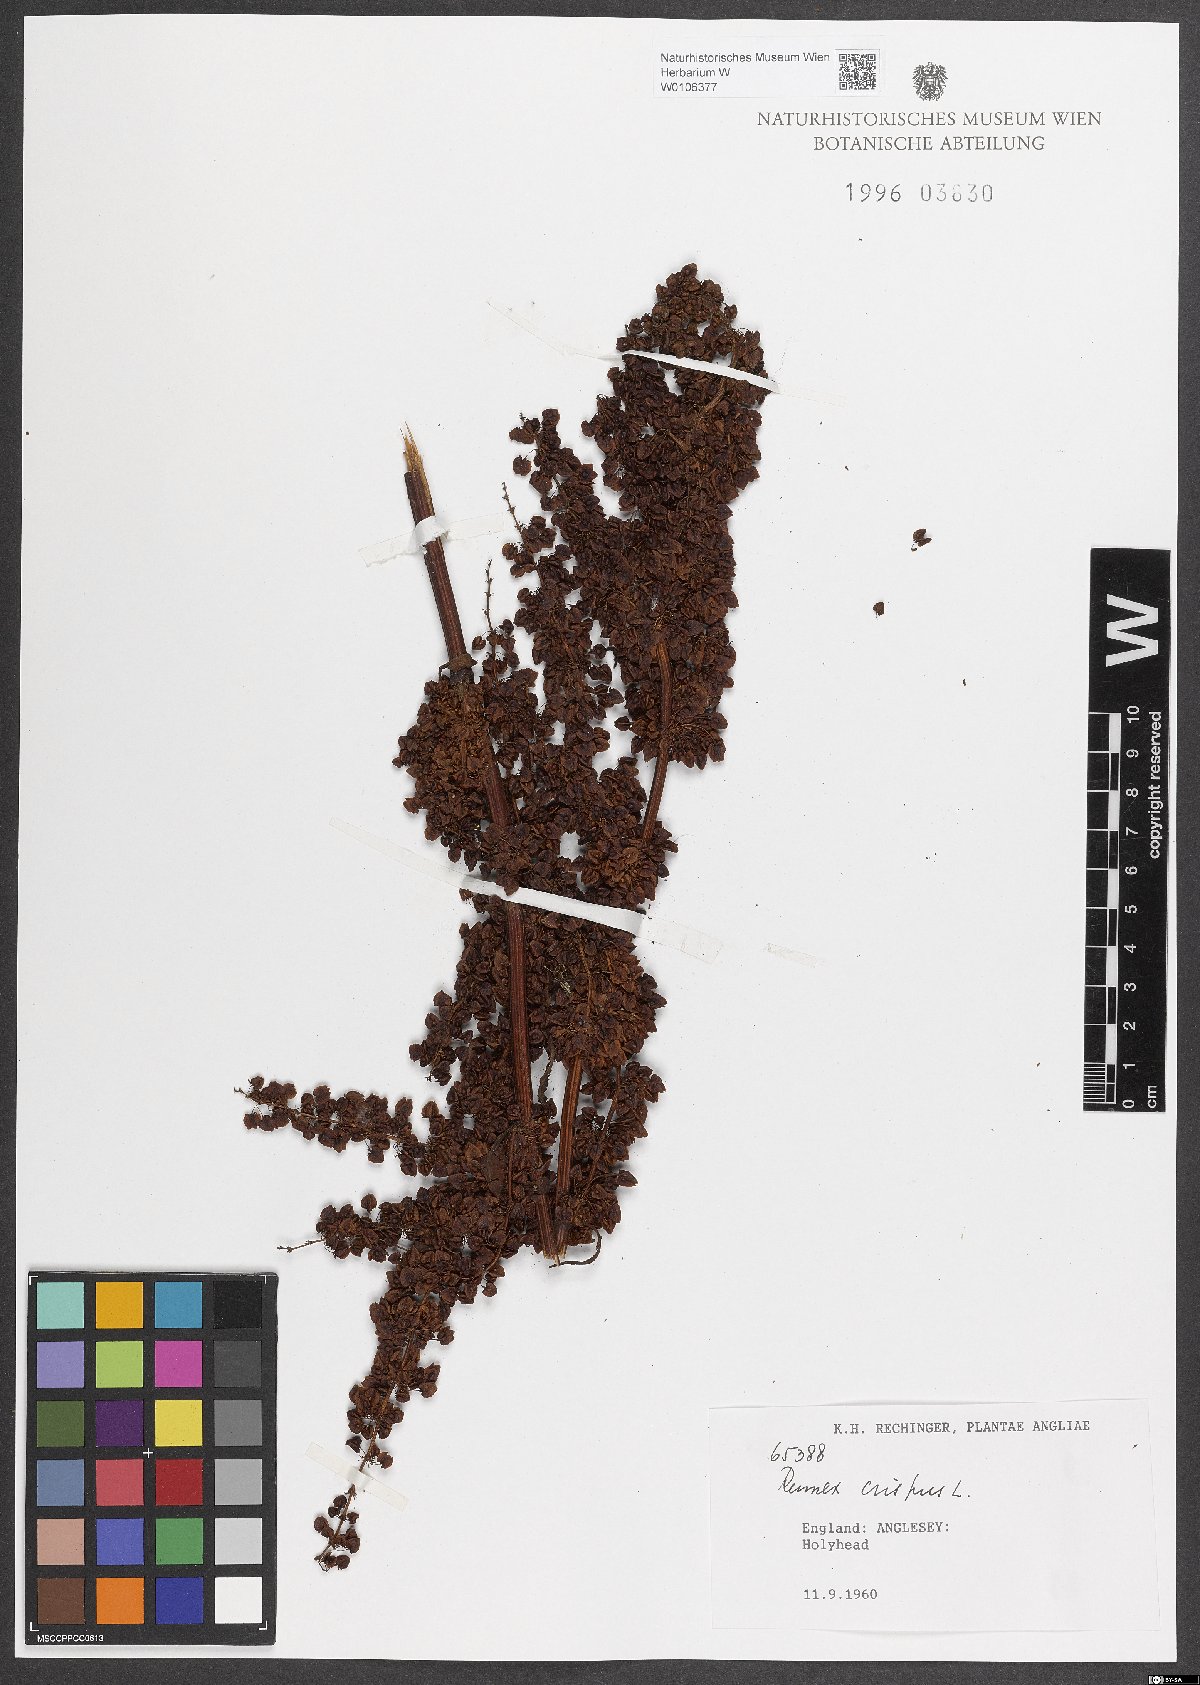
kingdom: Plantae
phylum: Tracheophyta
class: Magnoliopsida
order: Caryophyllales
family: Polygonaceae
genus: Rumex
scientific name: Rumex crispus
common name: Curled dock
